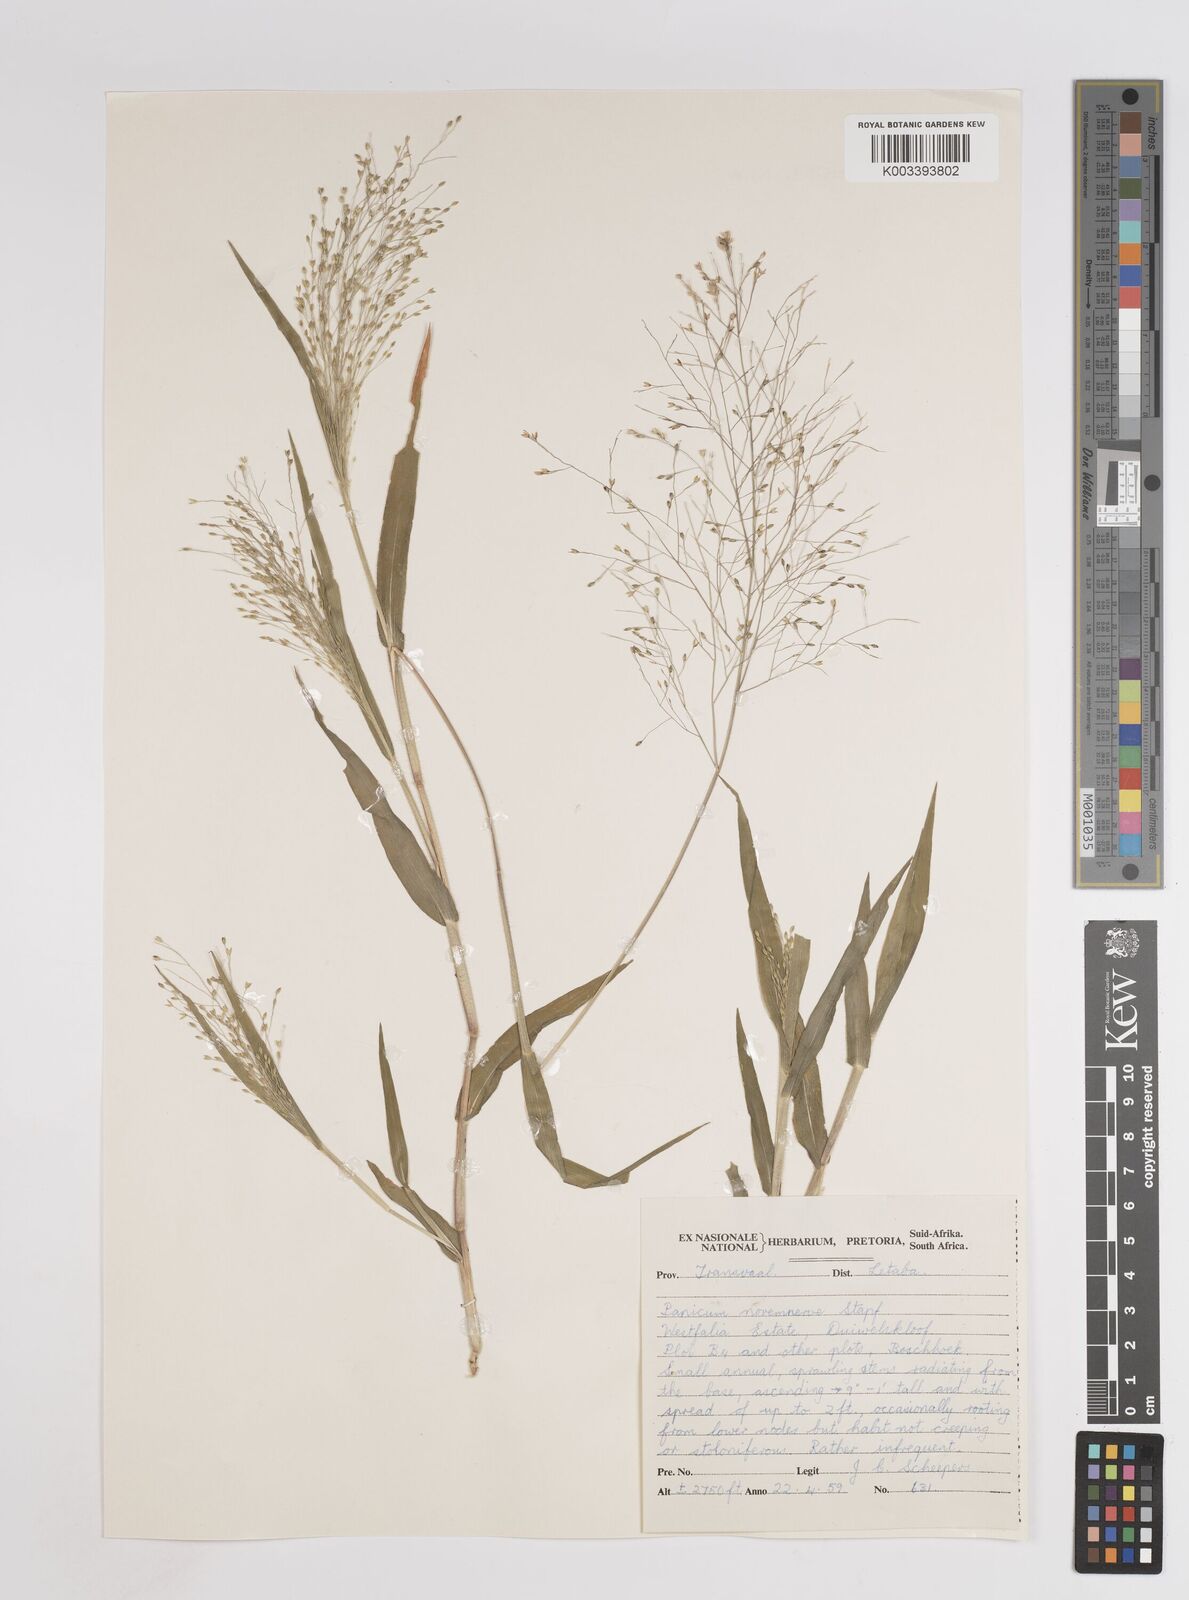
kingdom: Plantae
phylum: Tracheophyta
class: Liliopsida
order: Poales
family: Poaceae
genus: Panicum
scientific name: Panicum novemnerve
